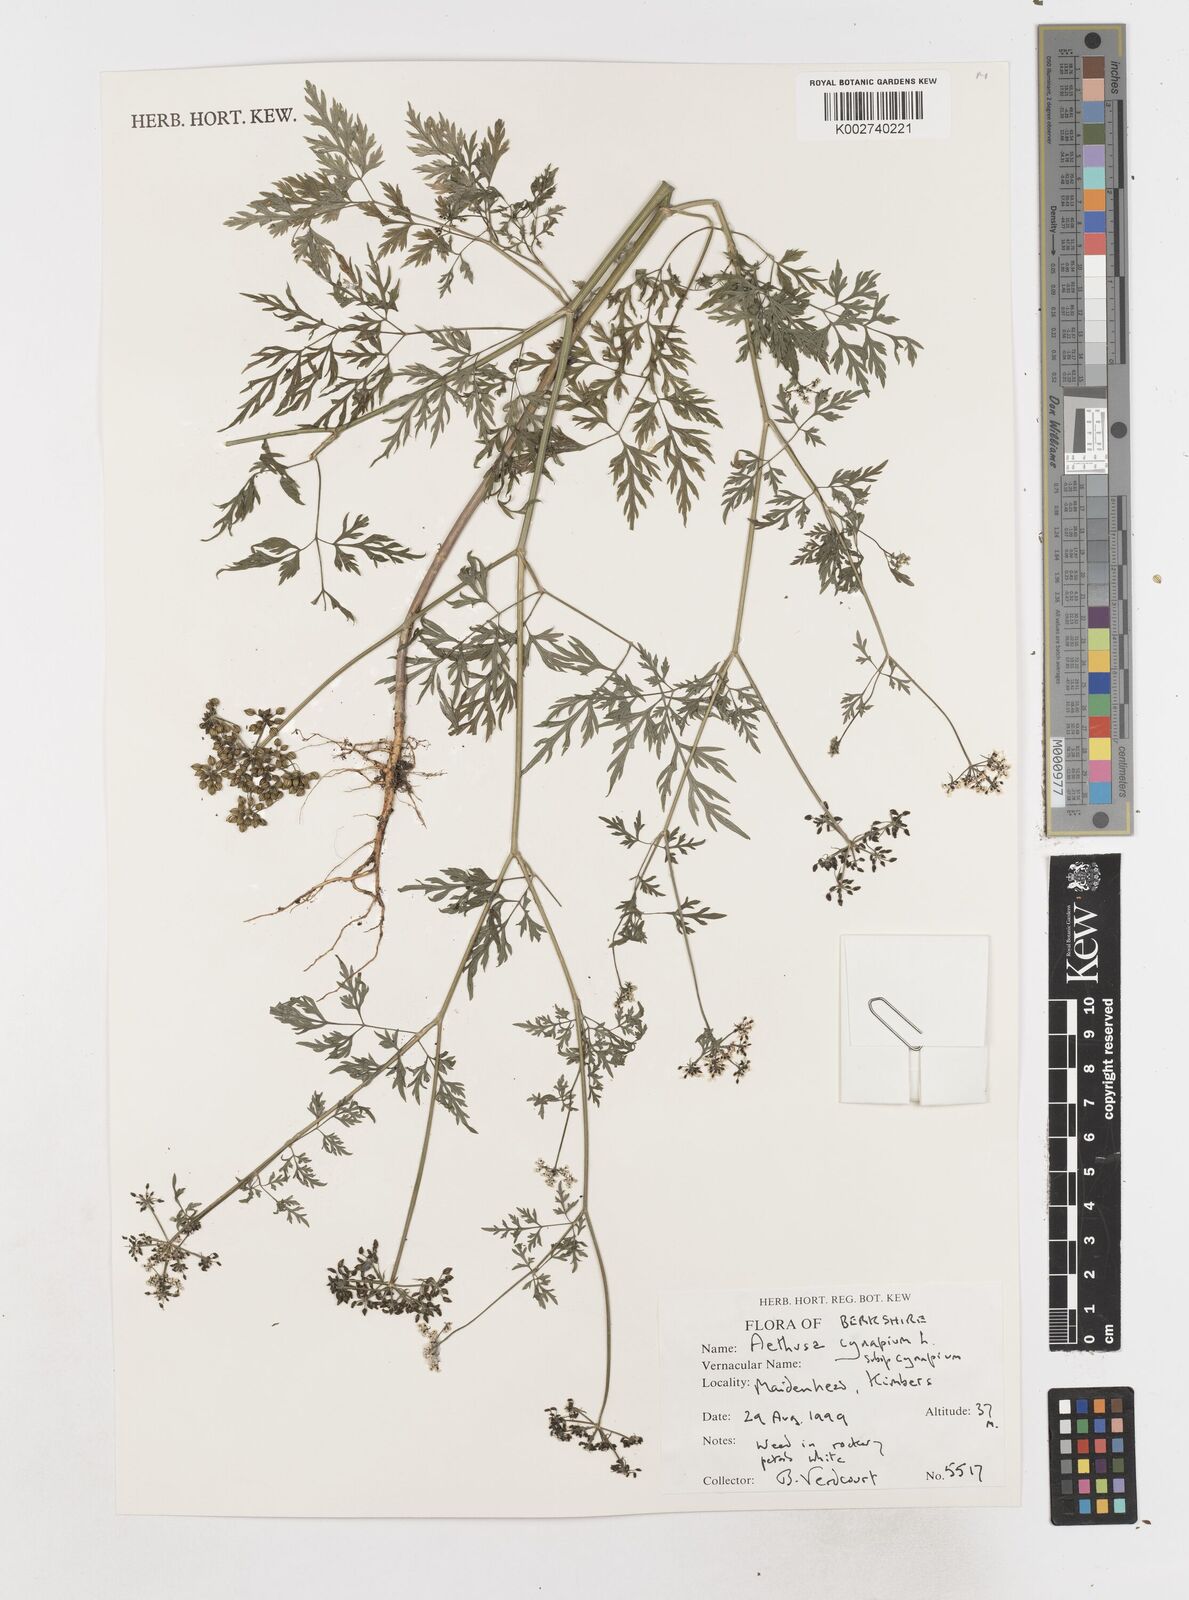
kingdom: Plantae
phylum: Tracheophyta
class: Magnoliopsida
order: Apiales
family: Apiaceae
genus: Aethusa
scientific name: Aethusa cynapium
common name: Fool's parsley
